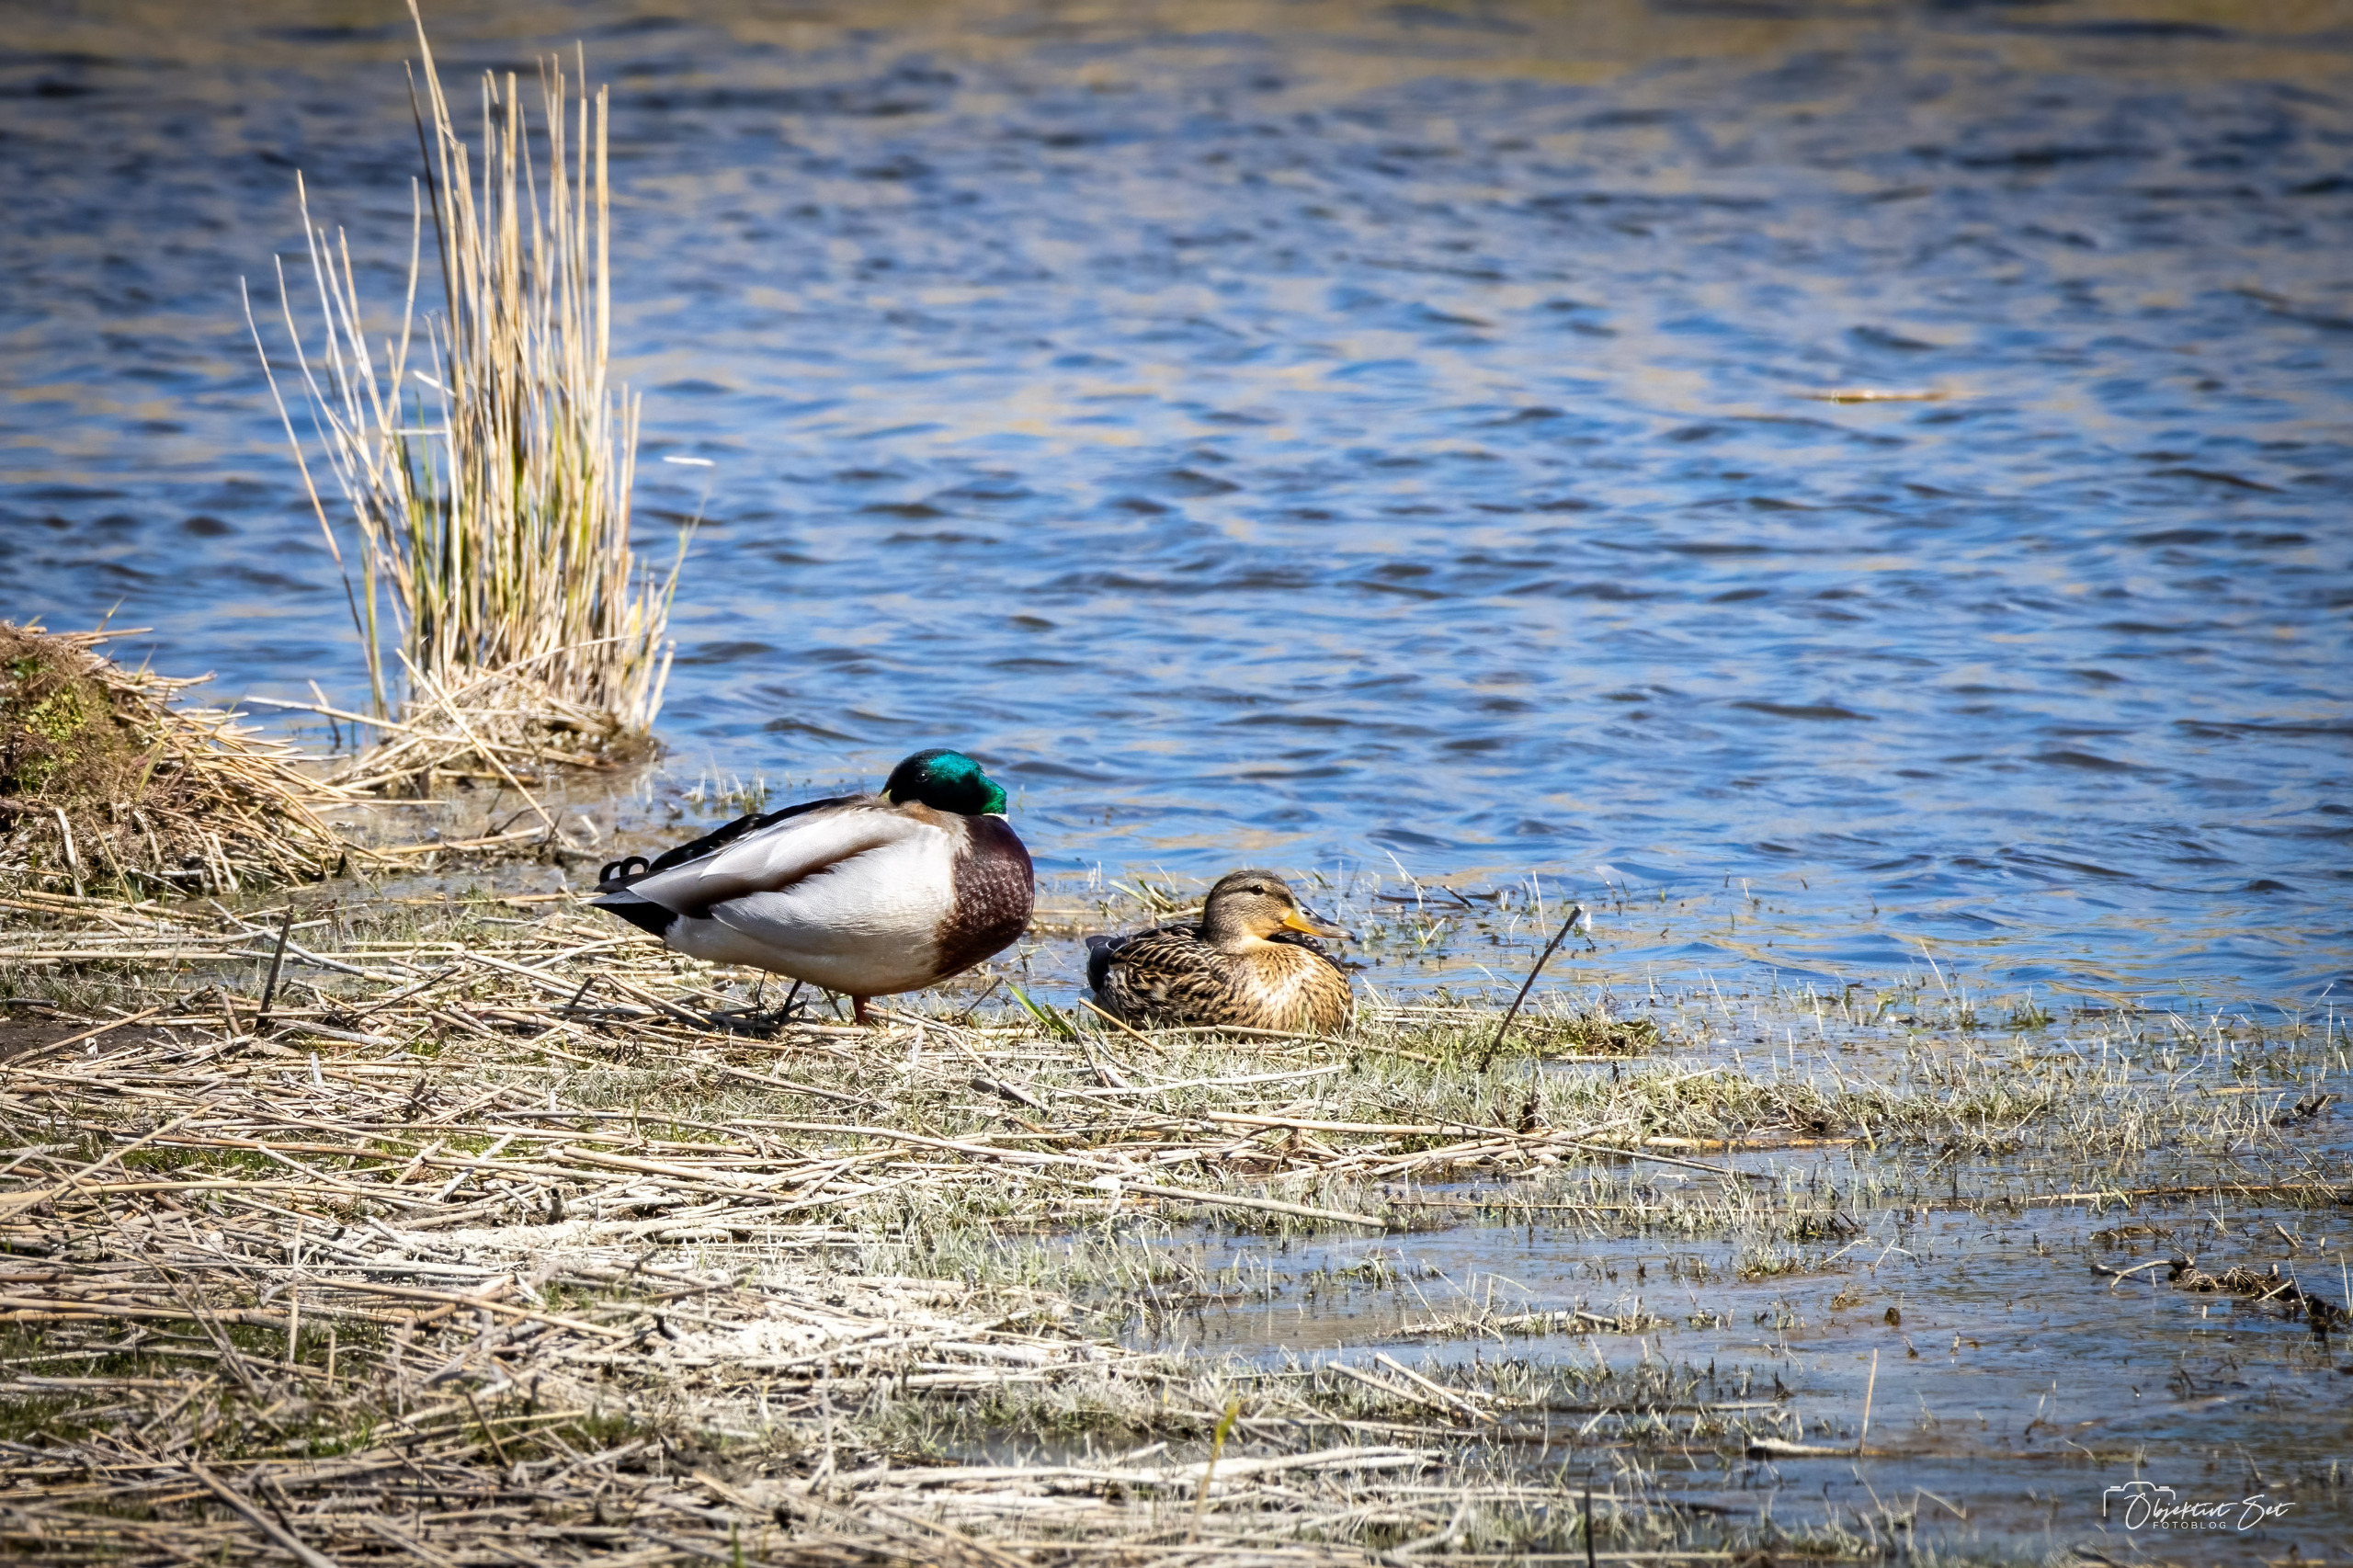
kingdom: Animalia
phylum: Chordata
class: Aves
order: Anseriformes
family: Anatidae
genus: Anas
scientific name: Anas platyrhynchos
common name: Gråand
